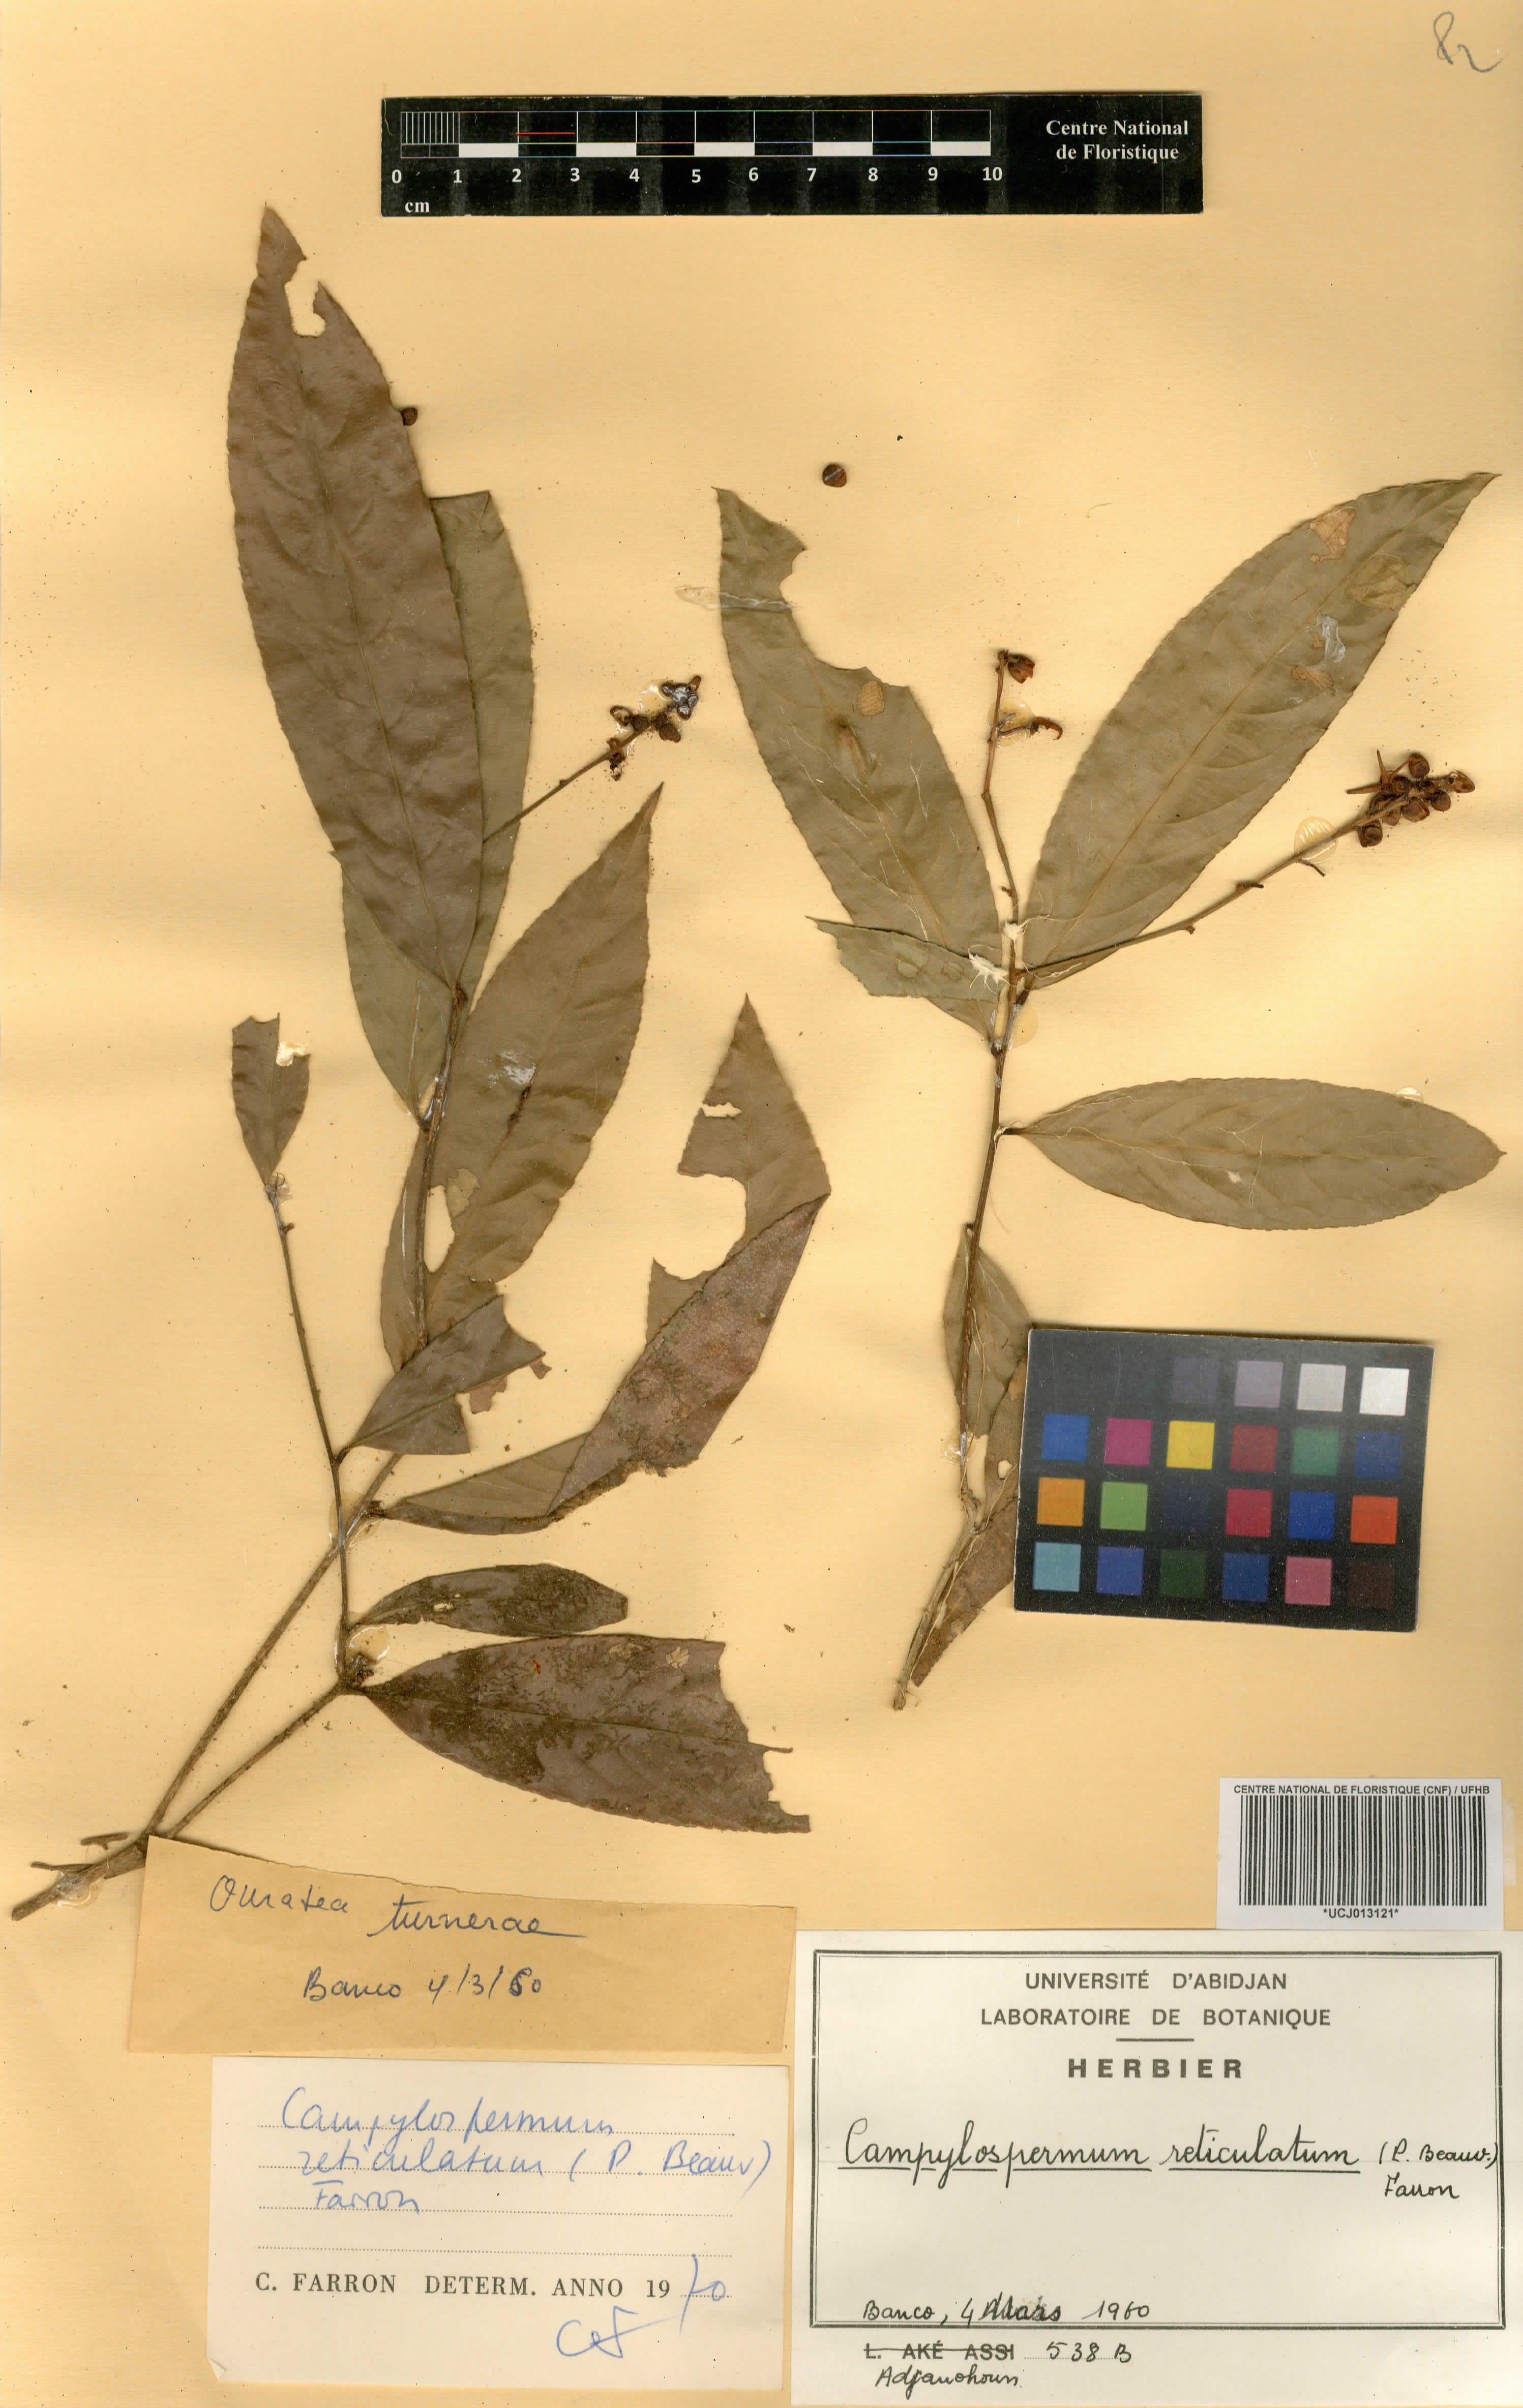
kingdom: Plantae
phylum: Tracheophyta
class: Magnoliopsida
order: Malpighiales
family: Ochnaceae
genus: Campylospermum
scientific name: Campylospermum reticulatum
